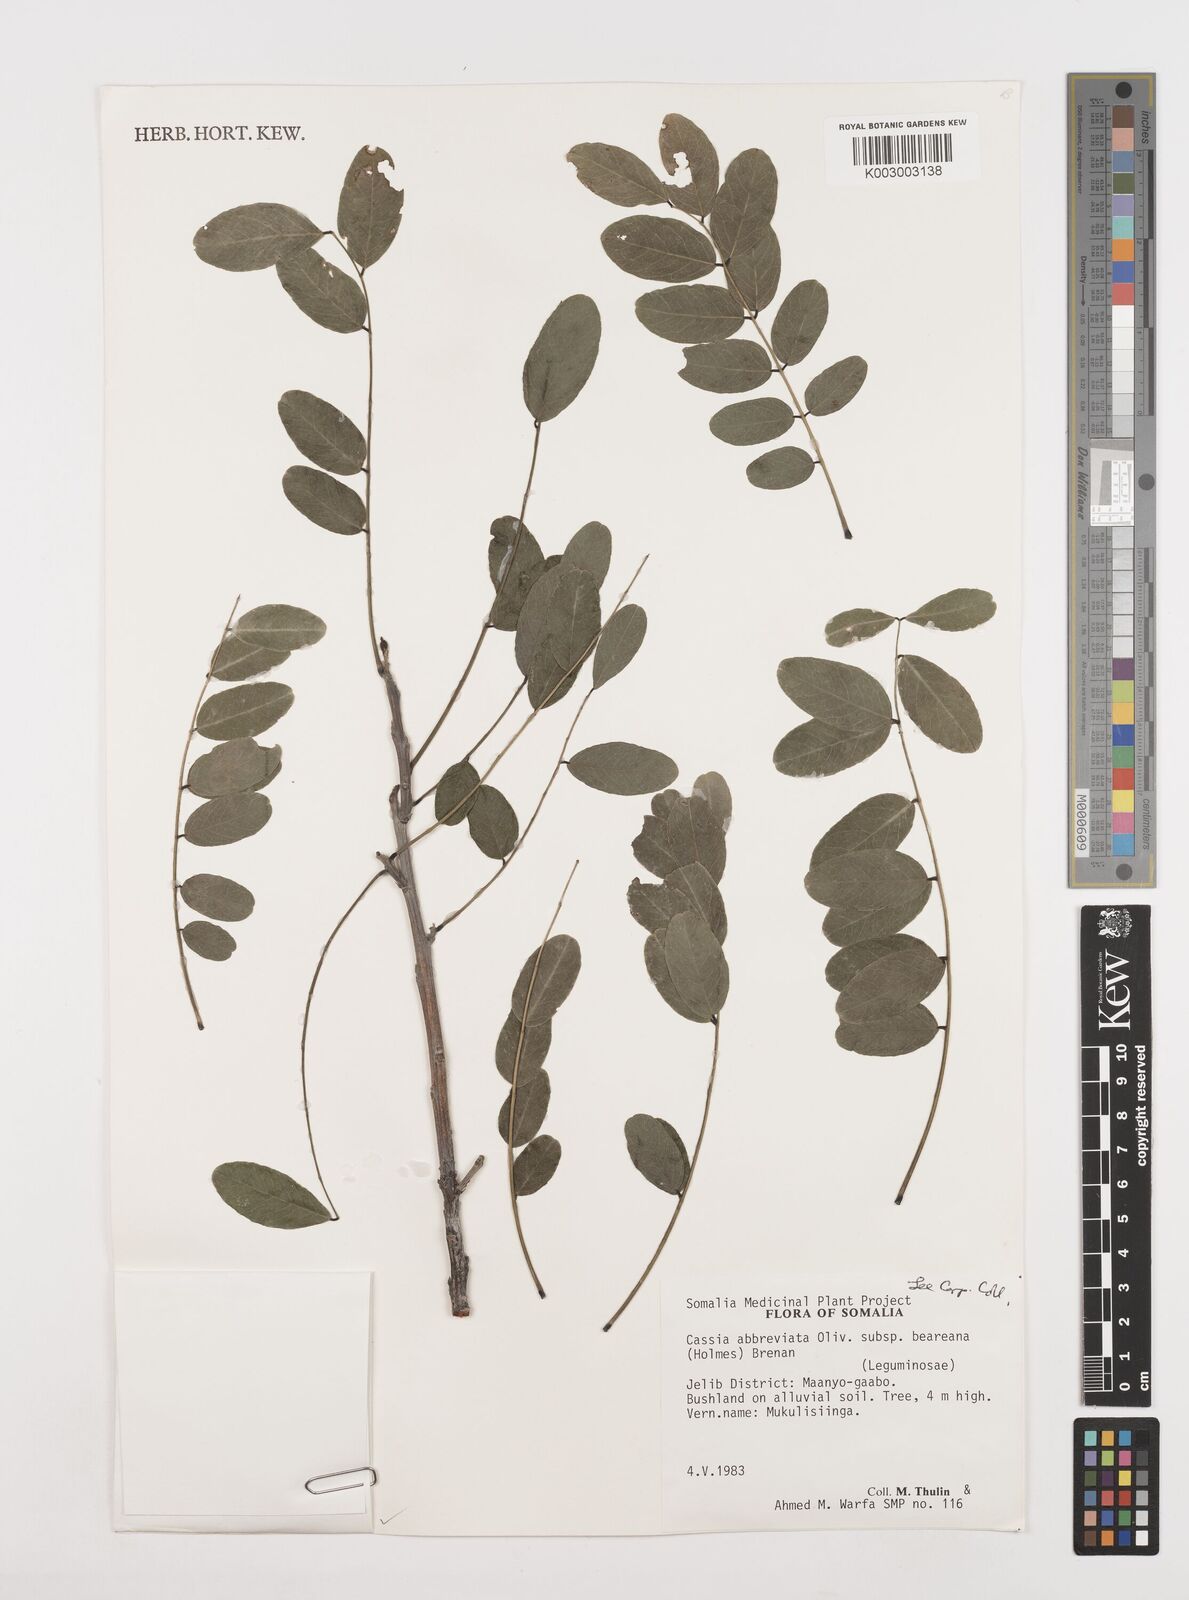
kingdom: Plantae
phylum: Tracheophyta
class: Magnoliopsida
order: Fabales
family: Fabaceae
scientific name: Fabaceae
